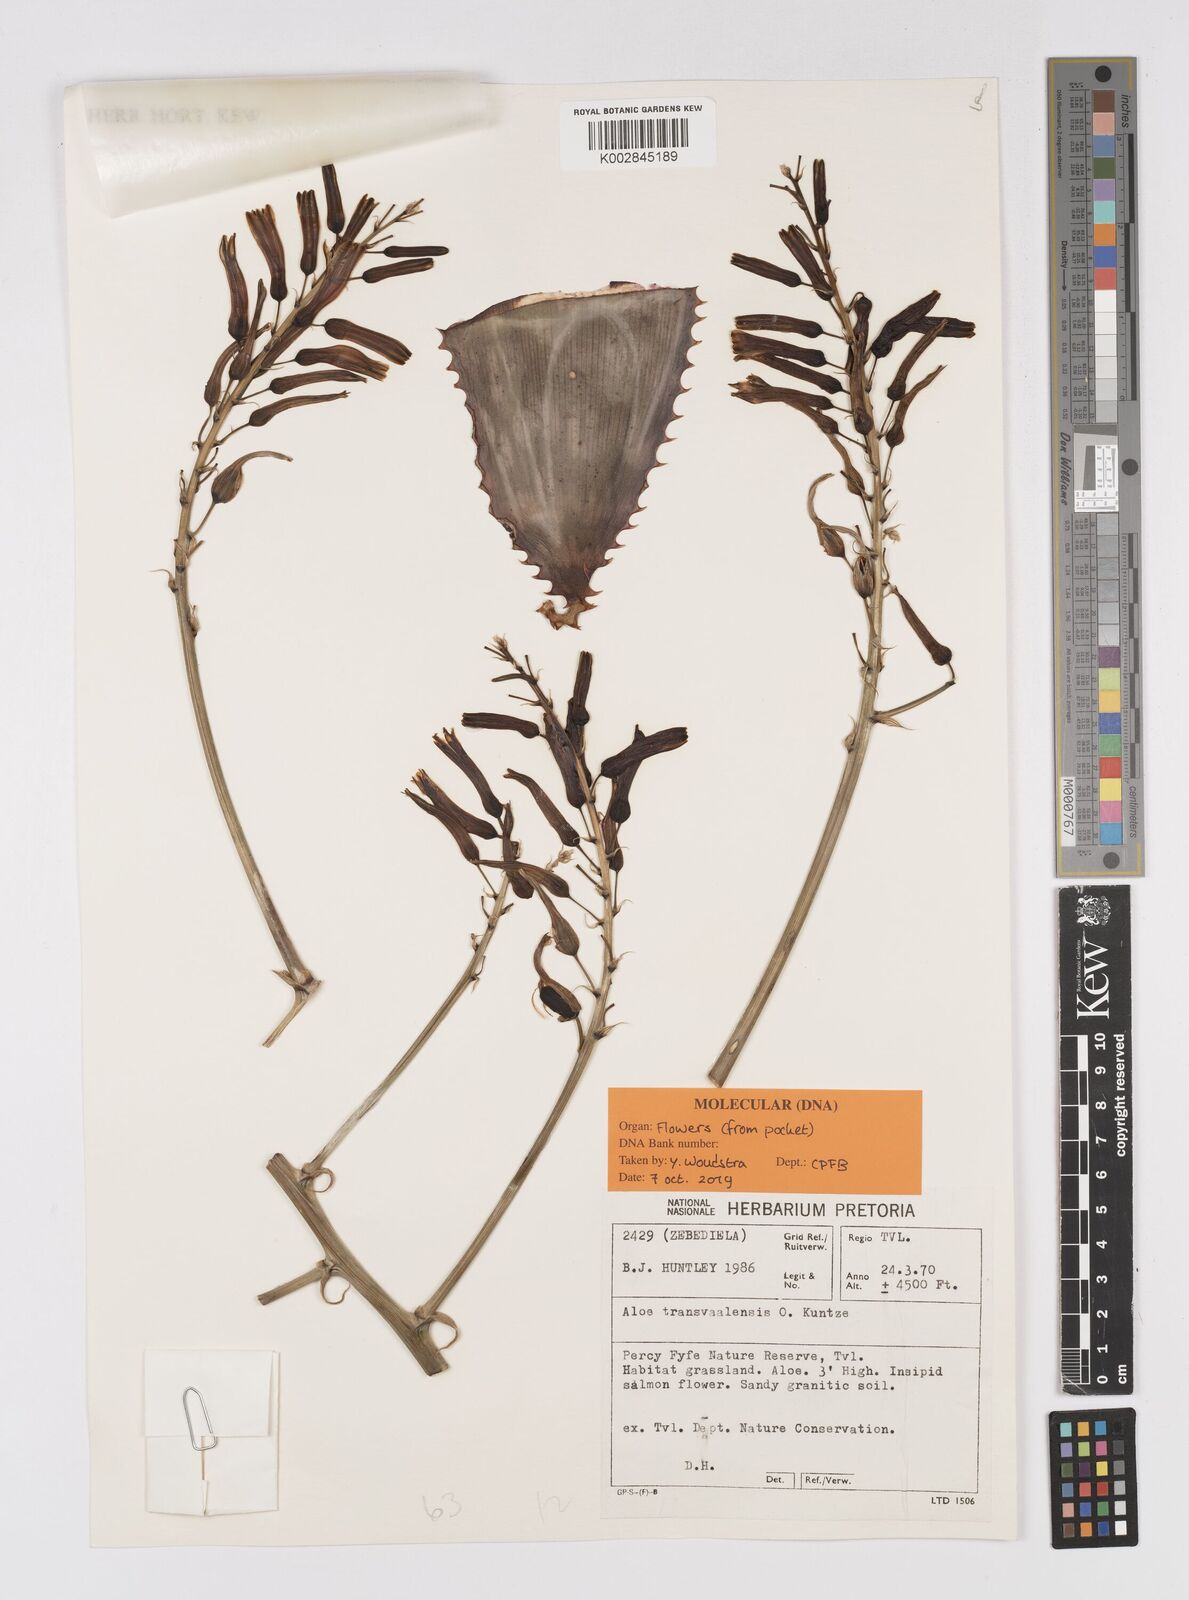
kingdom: Plantae
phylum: Tracheophyta
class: Liliopsida
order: Asparagales
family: Asphodelaceae
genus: Aloe
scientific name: Aloe transvaalensis
